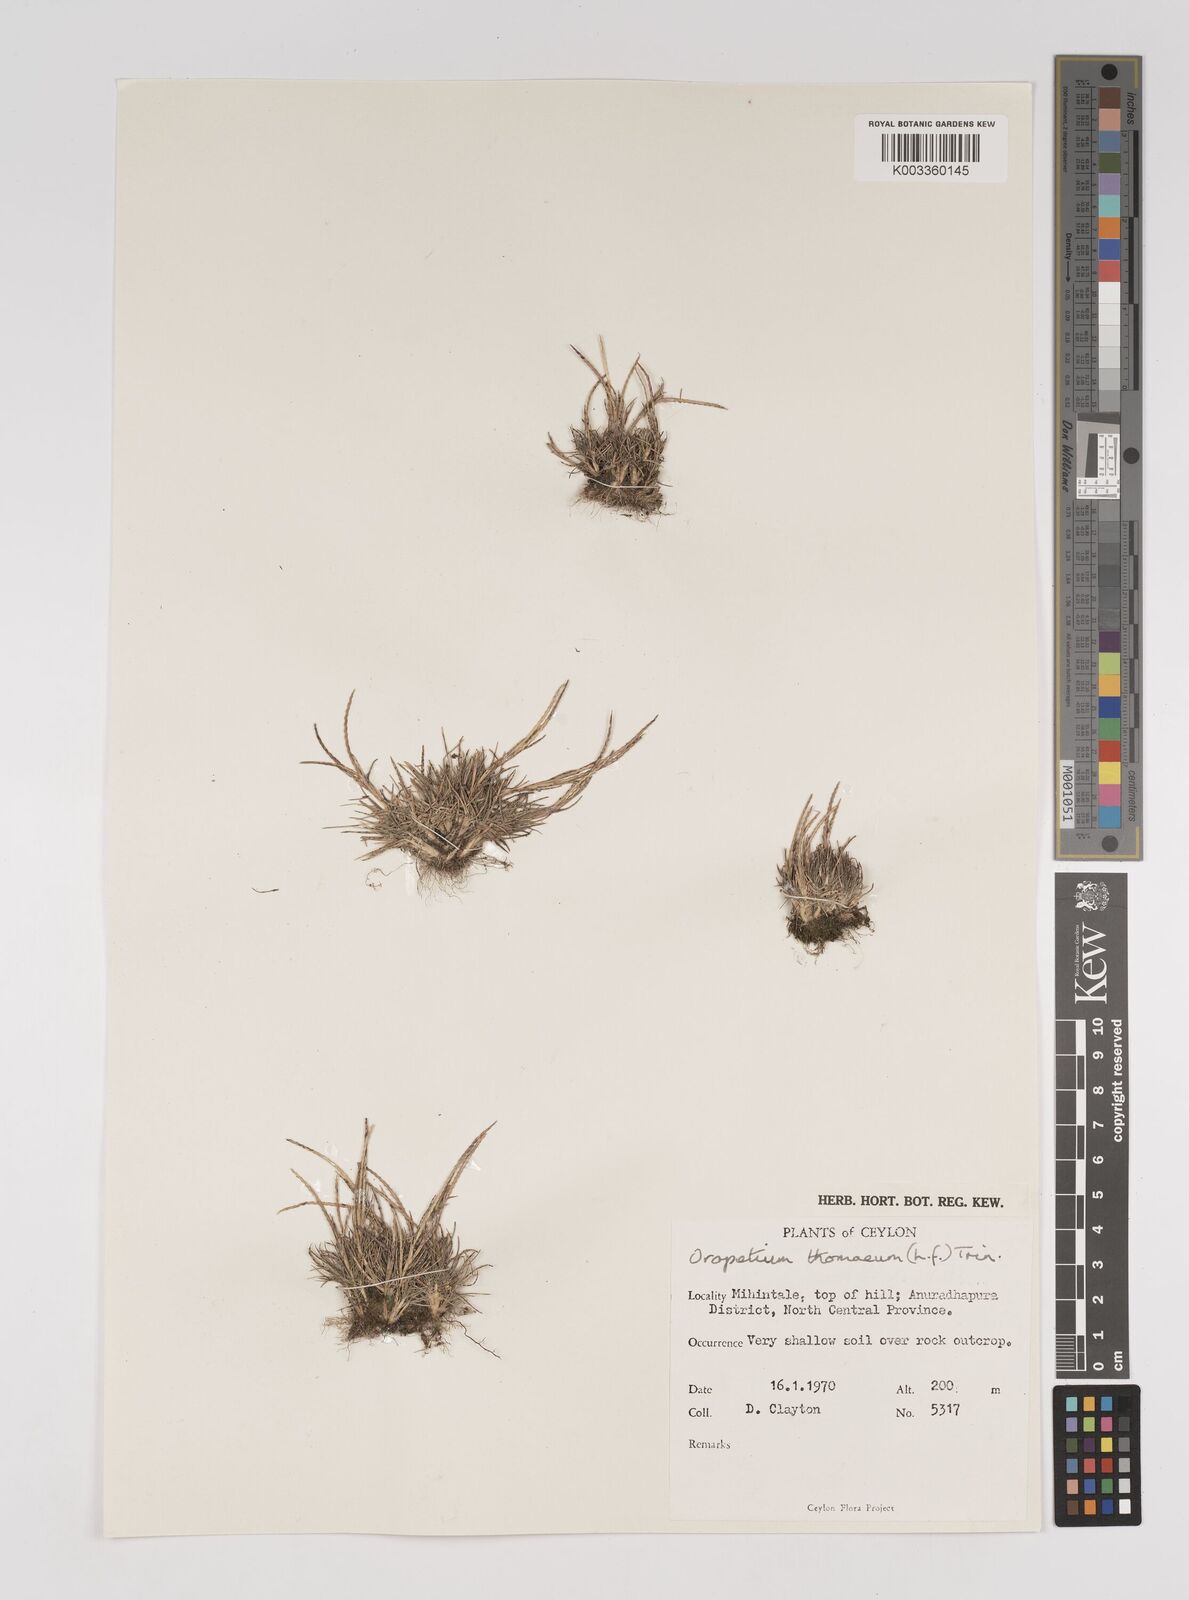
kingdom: Plantae
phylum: Tracheophyta
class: Liliopsida
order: Poales
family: Poaceae
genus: Oropetium
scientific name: Oropetium thomaeum
